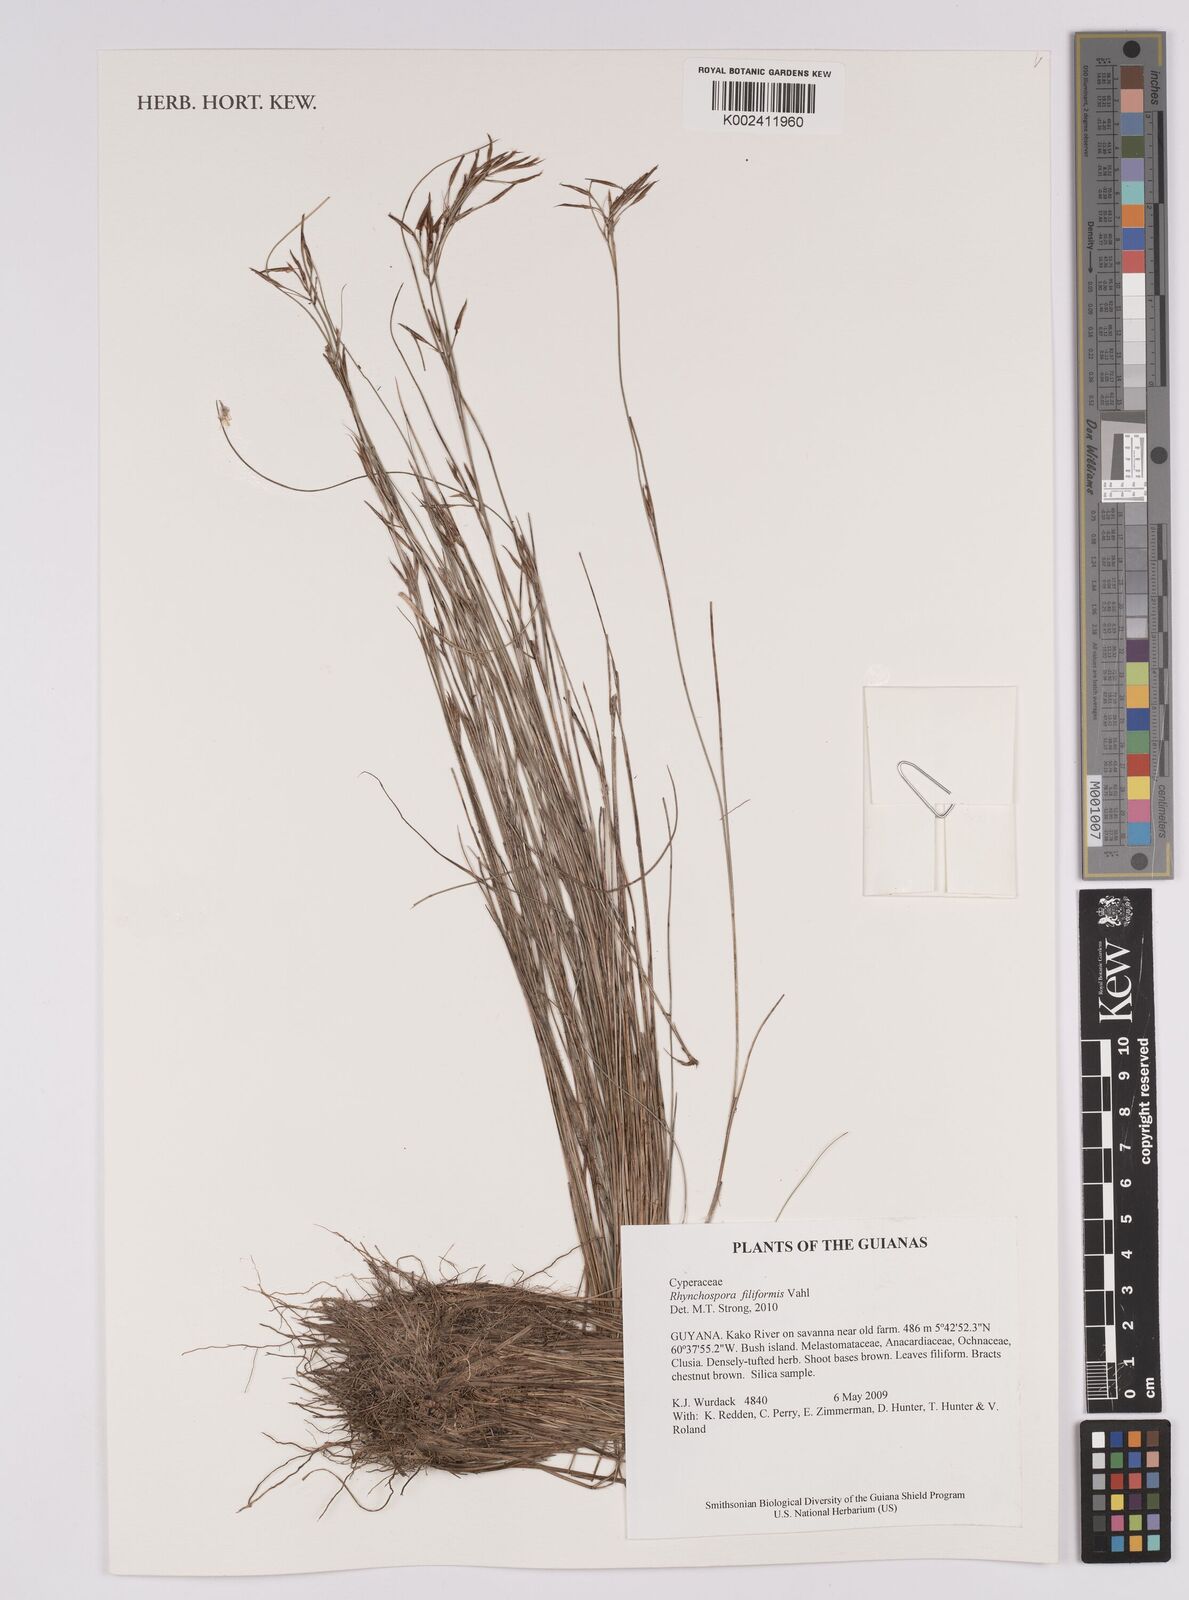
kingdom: Plantae
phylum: Tracheophyta
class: Liliopsida
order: Poales
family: Cyperaceae
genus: Rhynchospora
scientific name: Rhynchospora filiformis
